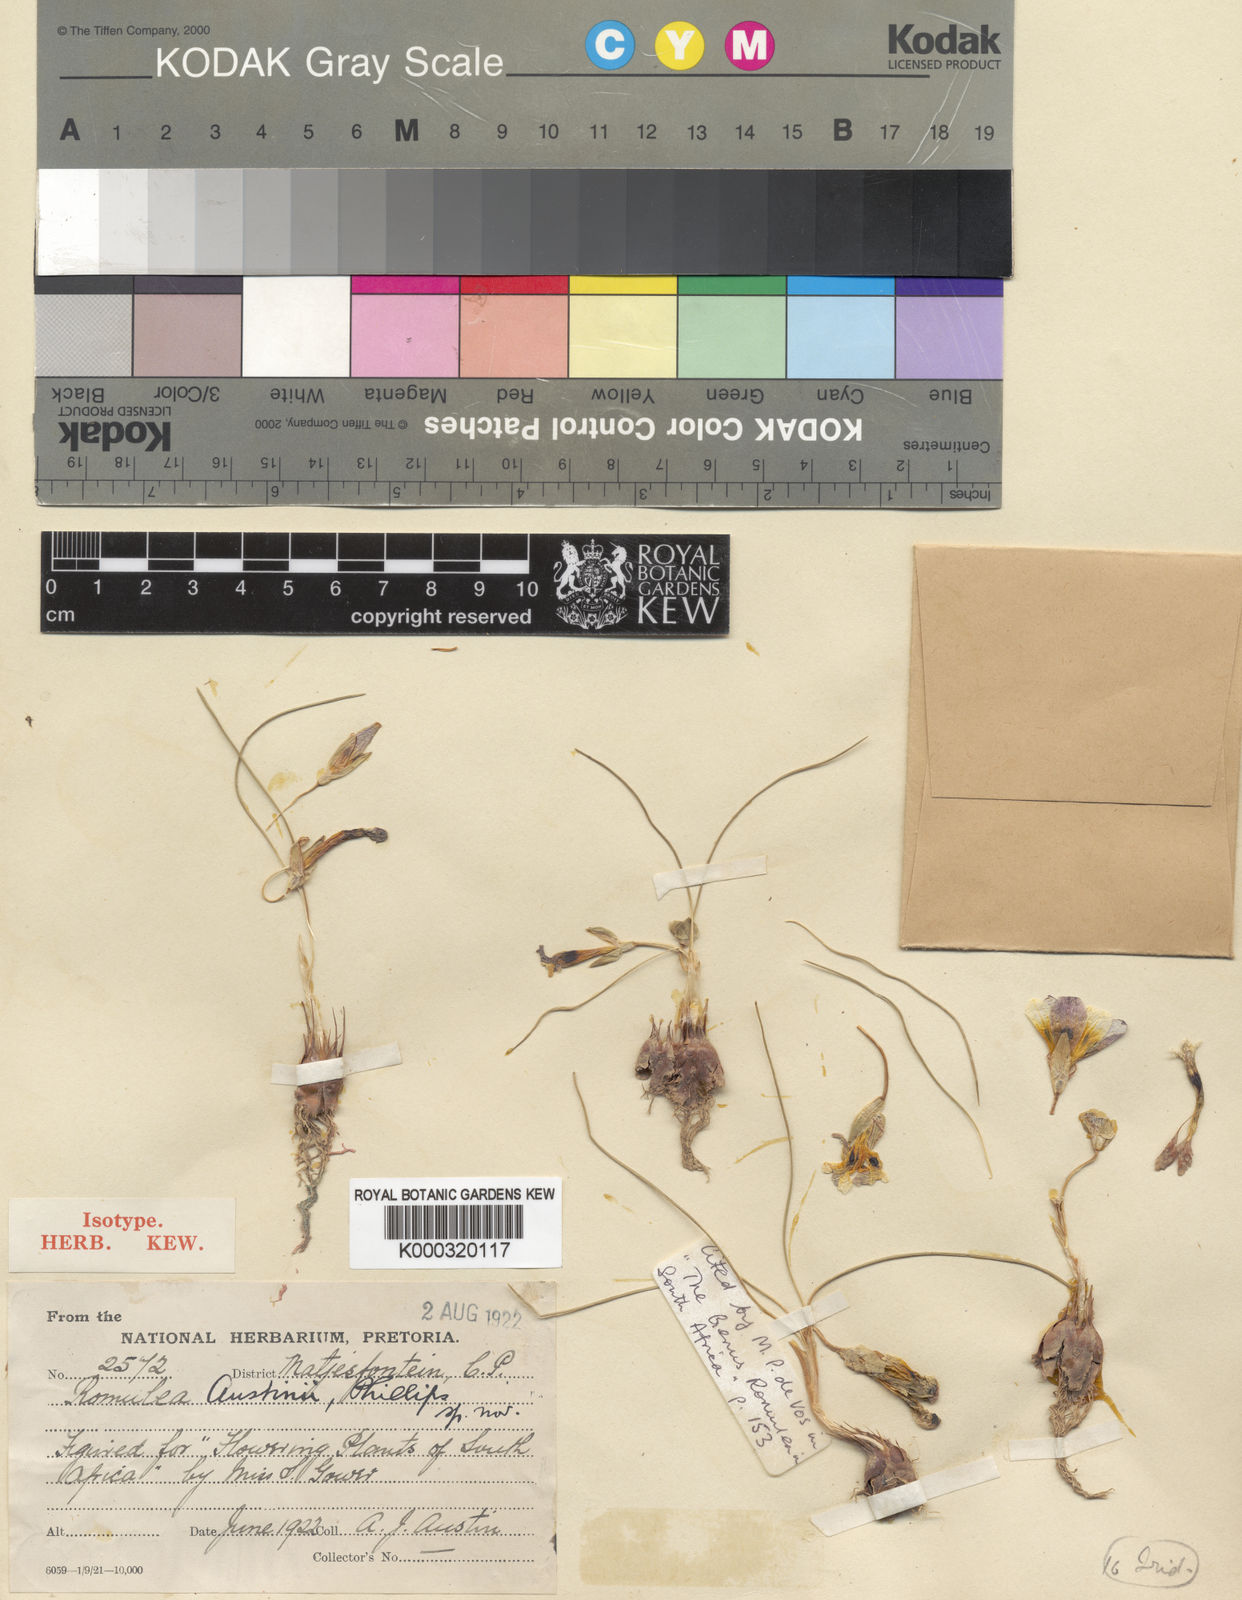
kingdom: Plantae
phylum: Tracheophyta
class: Liliopsida
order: Asparagales
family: Iridaceae
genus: Romulea
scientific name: Romulea austinii
